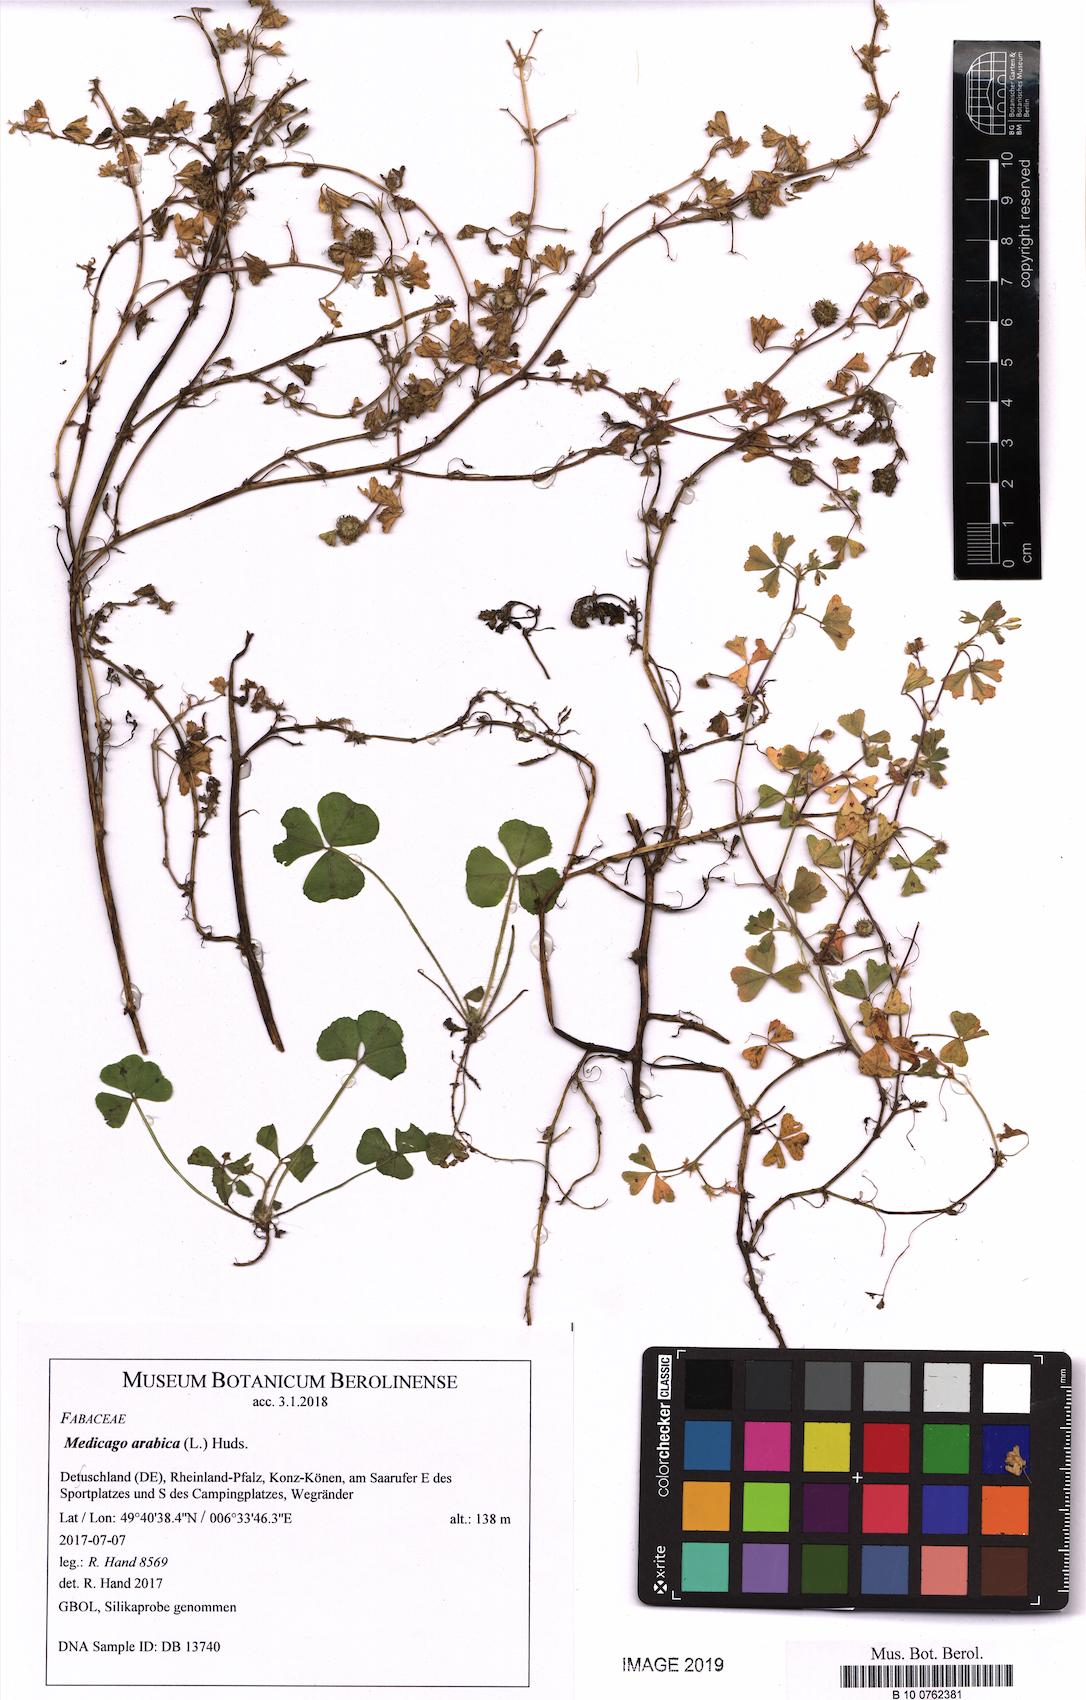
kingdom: Plantae
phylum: Tracheophyta
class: Magnoliopsida
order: Fabales
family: Fabaceae
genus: Medicago
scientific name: Medicago arabica
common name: Spotted medick
